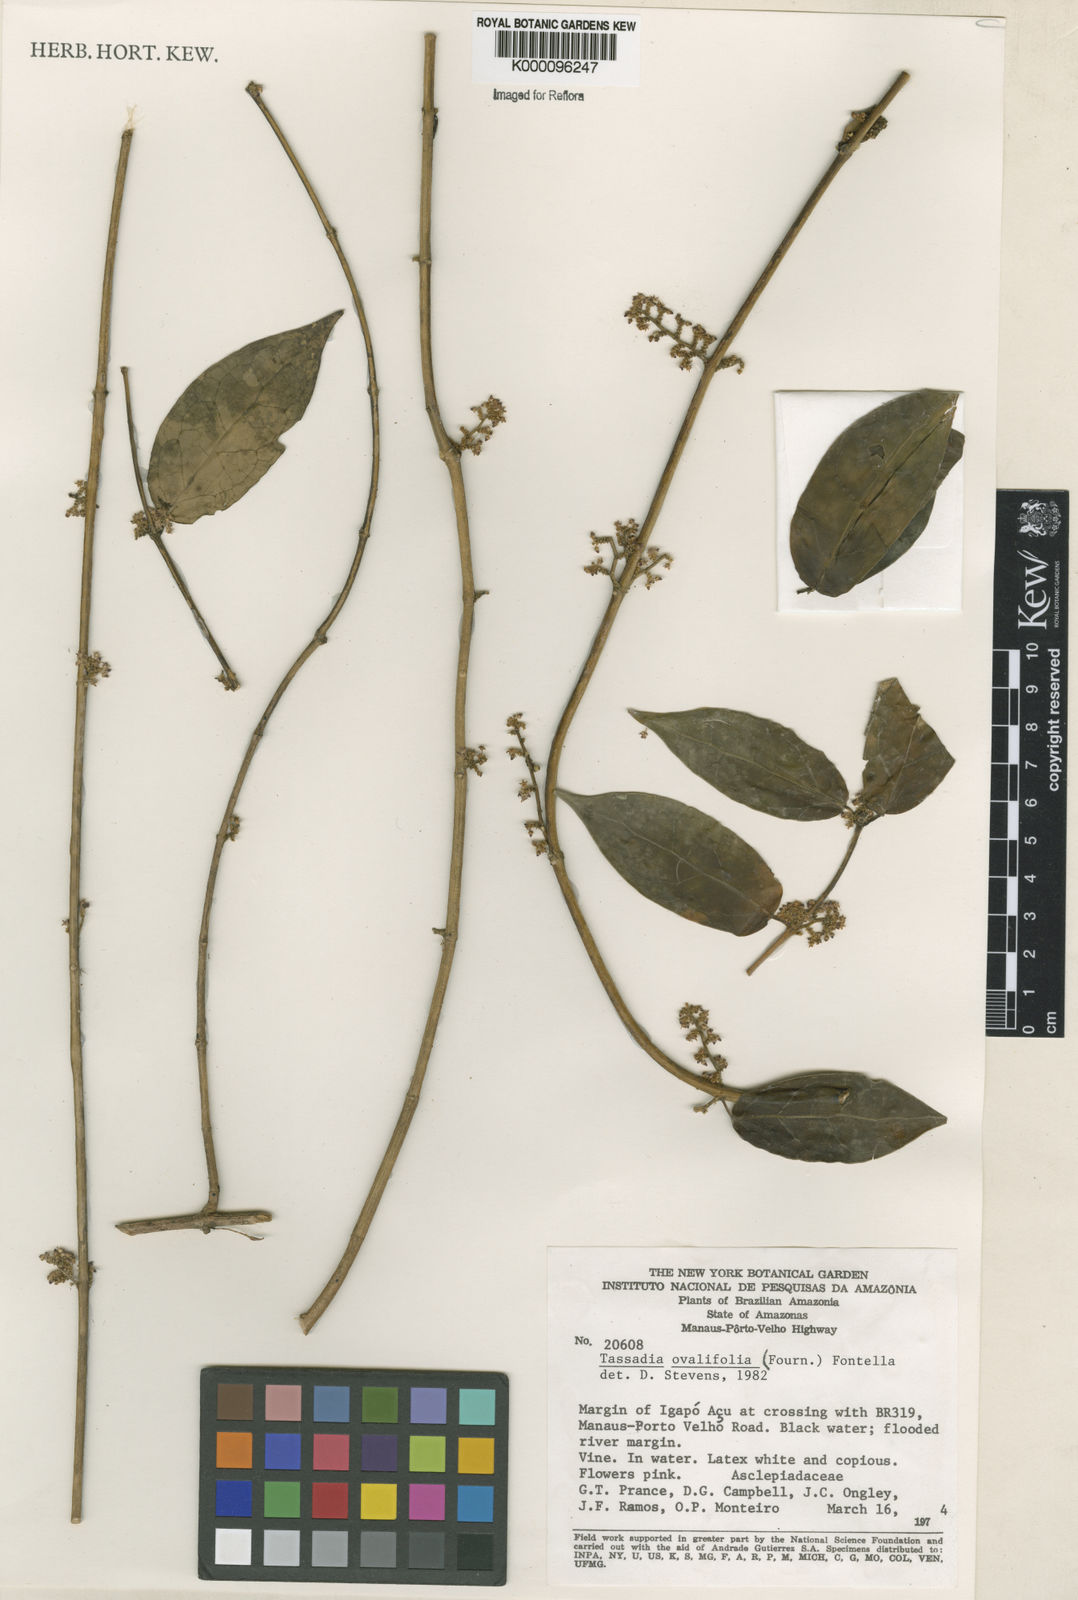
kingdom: Plantae
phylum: Tracheophyta
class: Magnoliopsida
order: Gentianales
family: Apocynaceae
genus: Tassadia
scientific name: Tassadia ovalifolia
